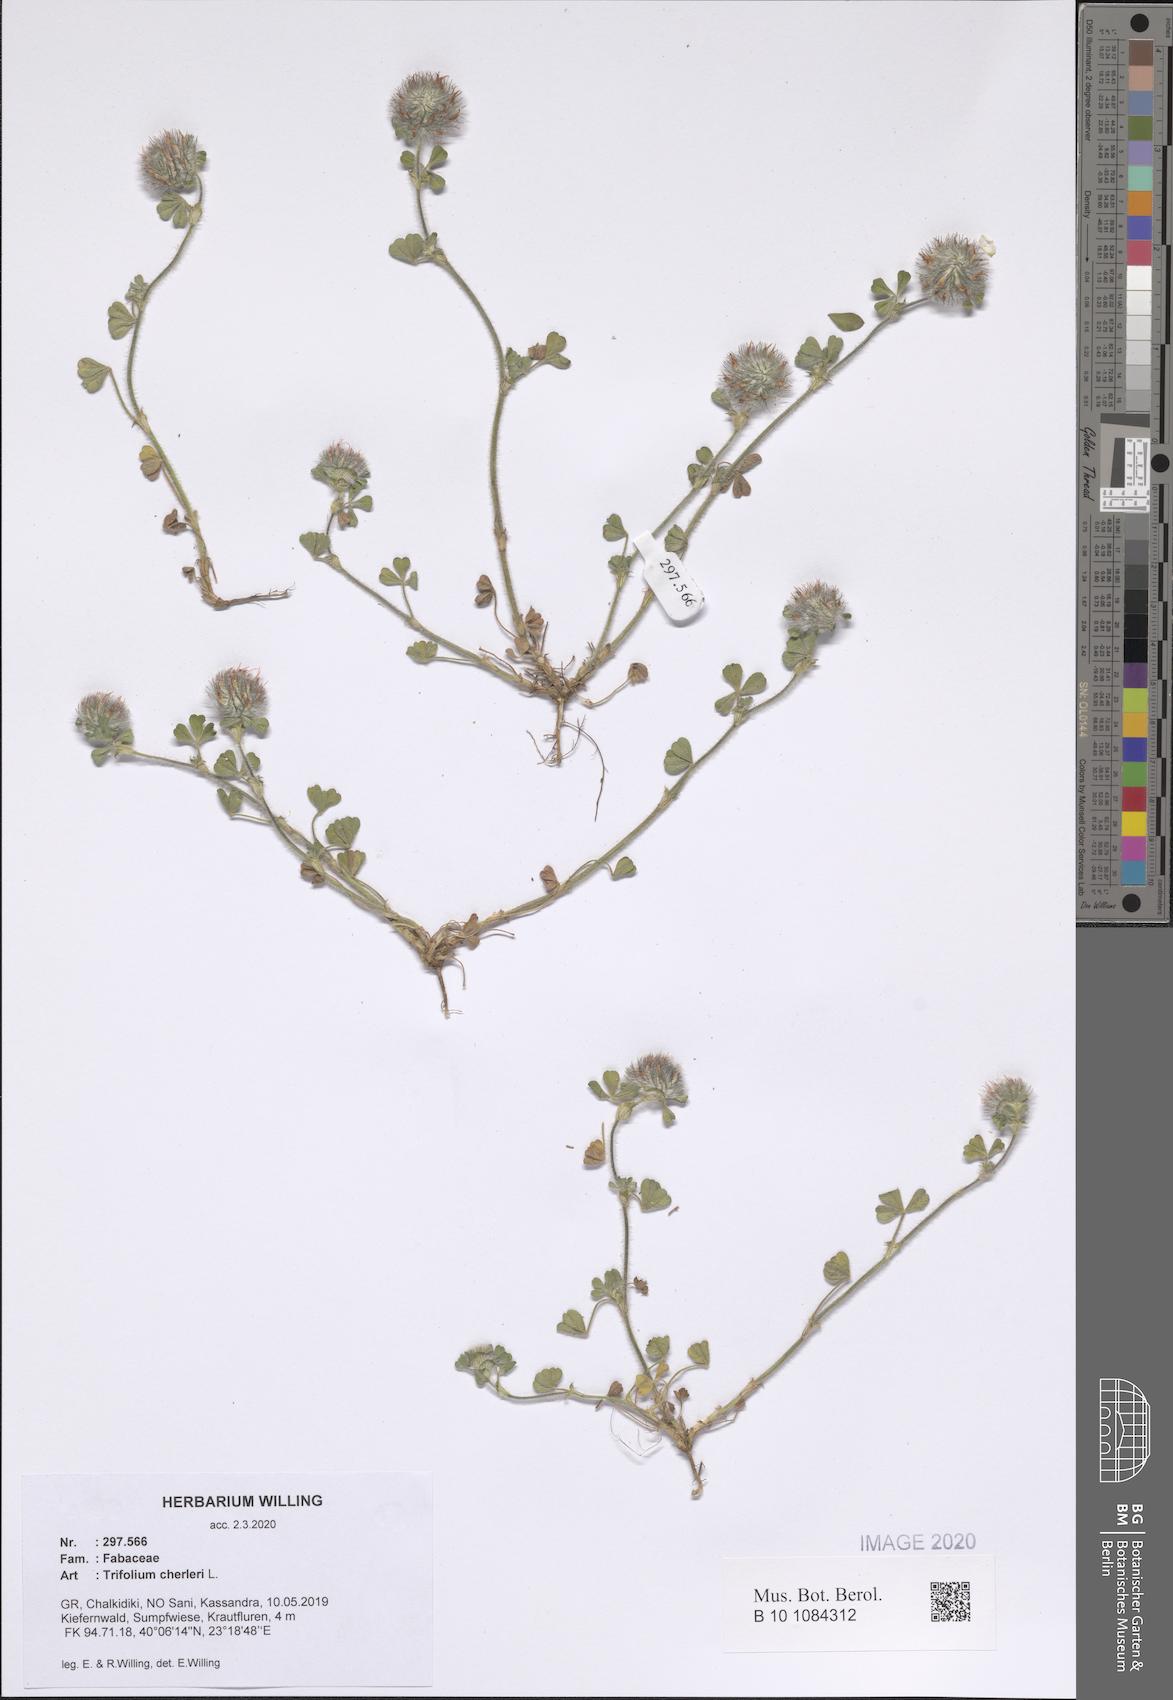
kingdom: Plantae
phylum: Tracheophyta
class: Magnoliopsida
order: Fabales
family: Fabaceae
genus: Trifolium
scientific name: Trifolium cherleri
